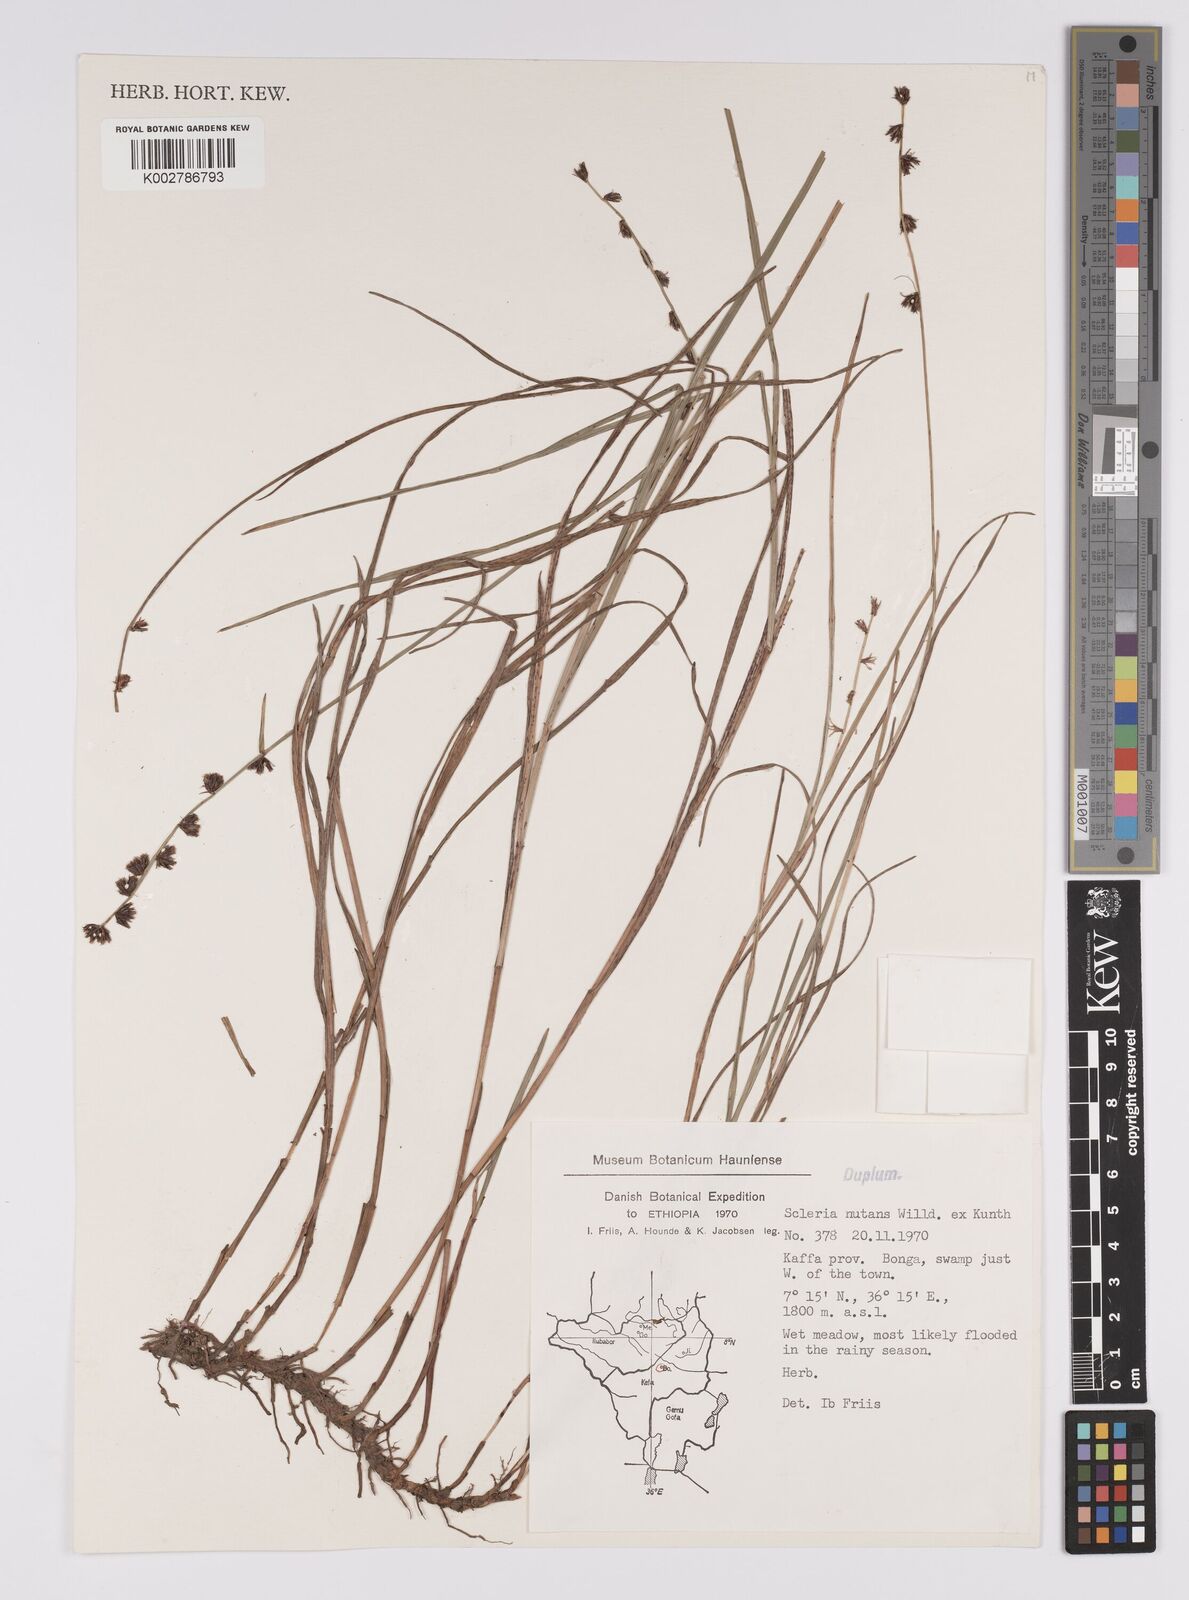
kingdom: Plantae
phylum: Tracheophyta
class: Liliopsida
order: Poales
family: Cyperaceae
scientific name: Cyperaceae
